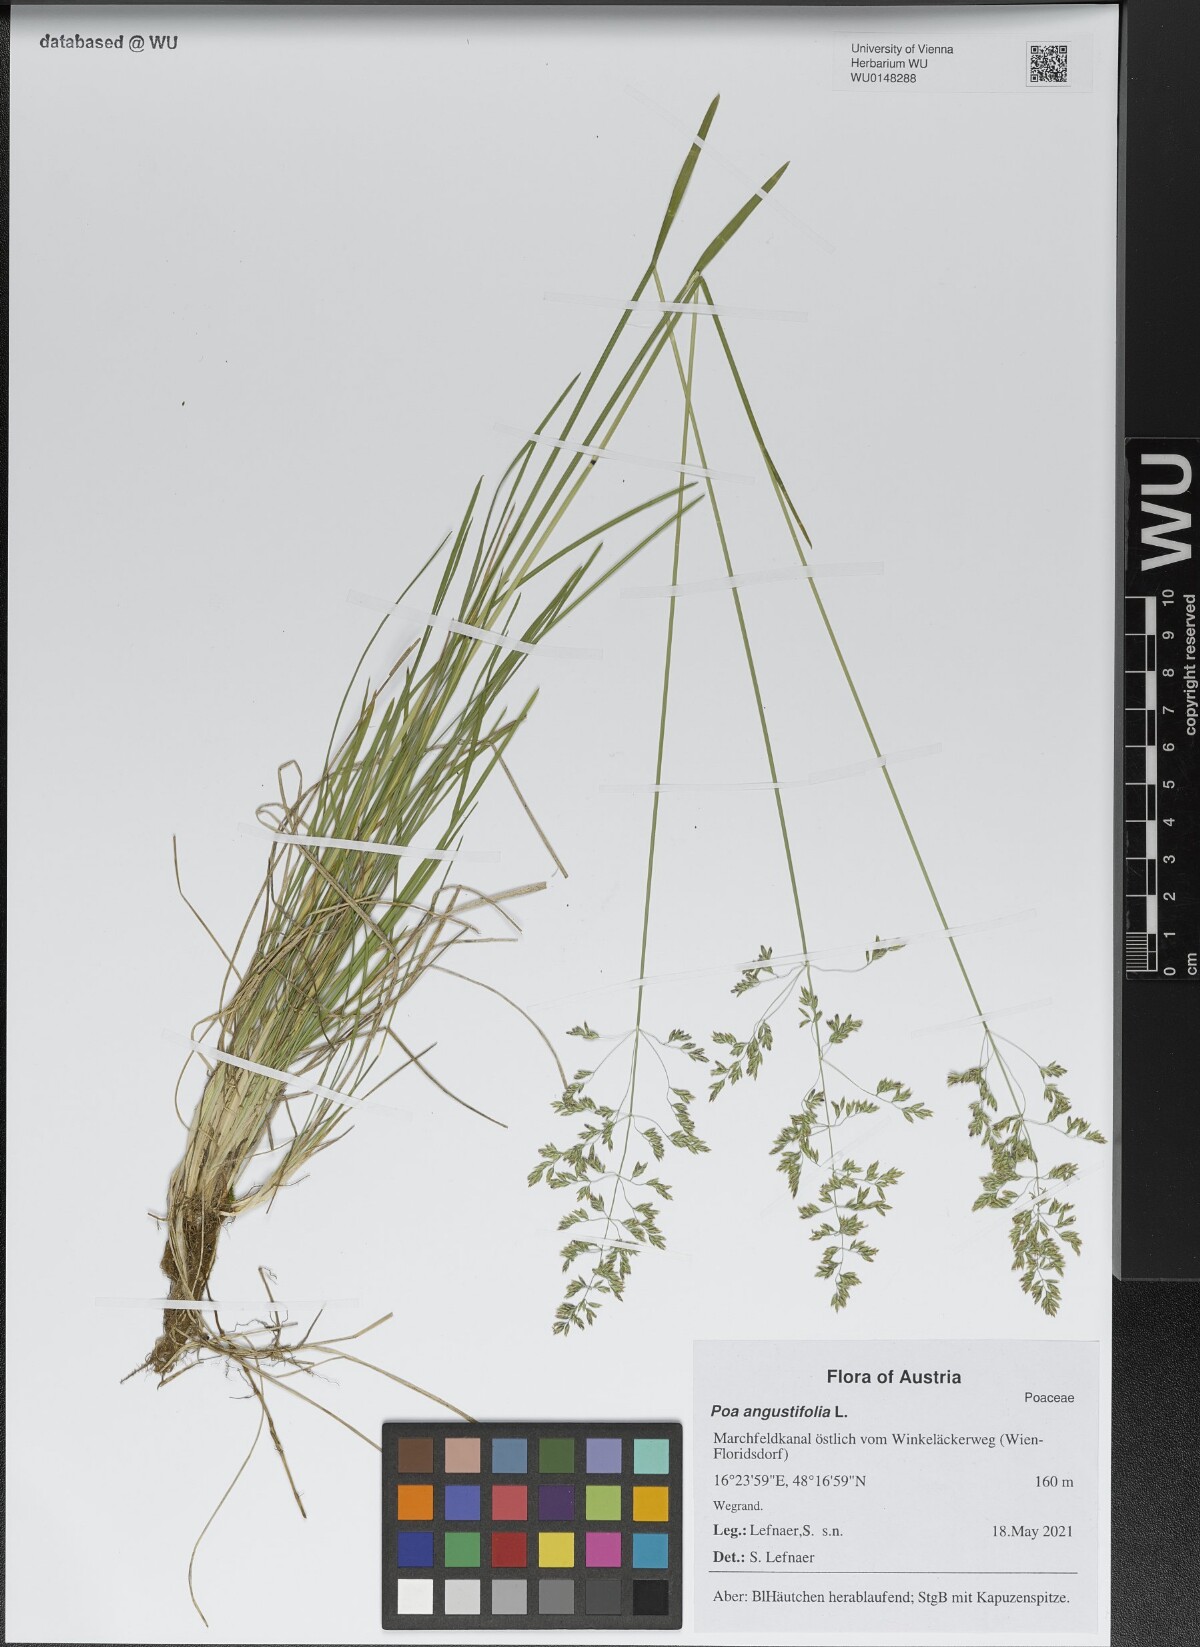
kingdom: Plantae
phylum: Tracheophyta
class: Liliopsida
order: Poales
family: Poaceae
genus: Poa
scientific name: Poa angustifolia
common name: Narrow-leaved meadow-grass
